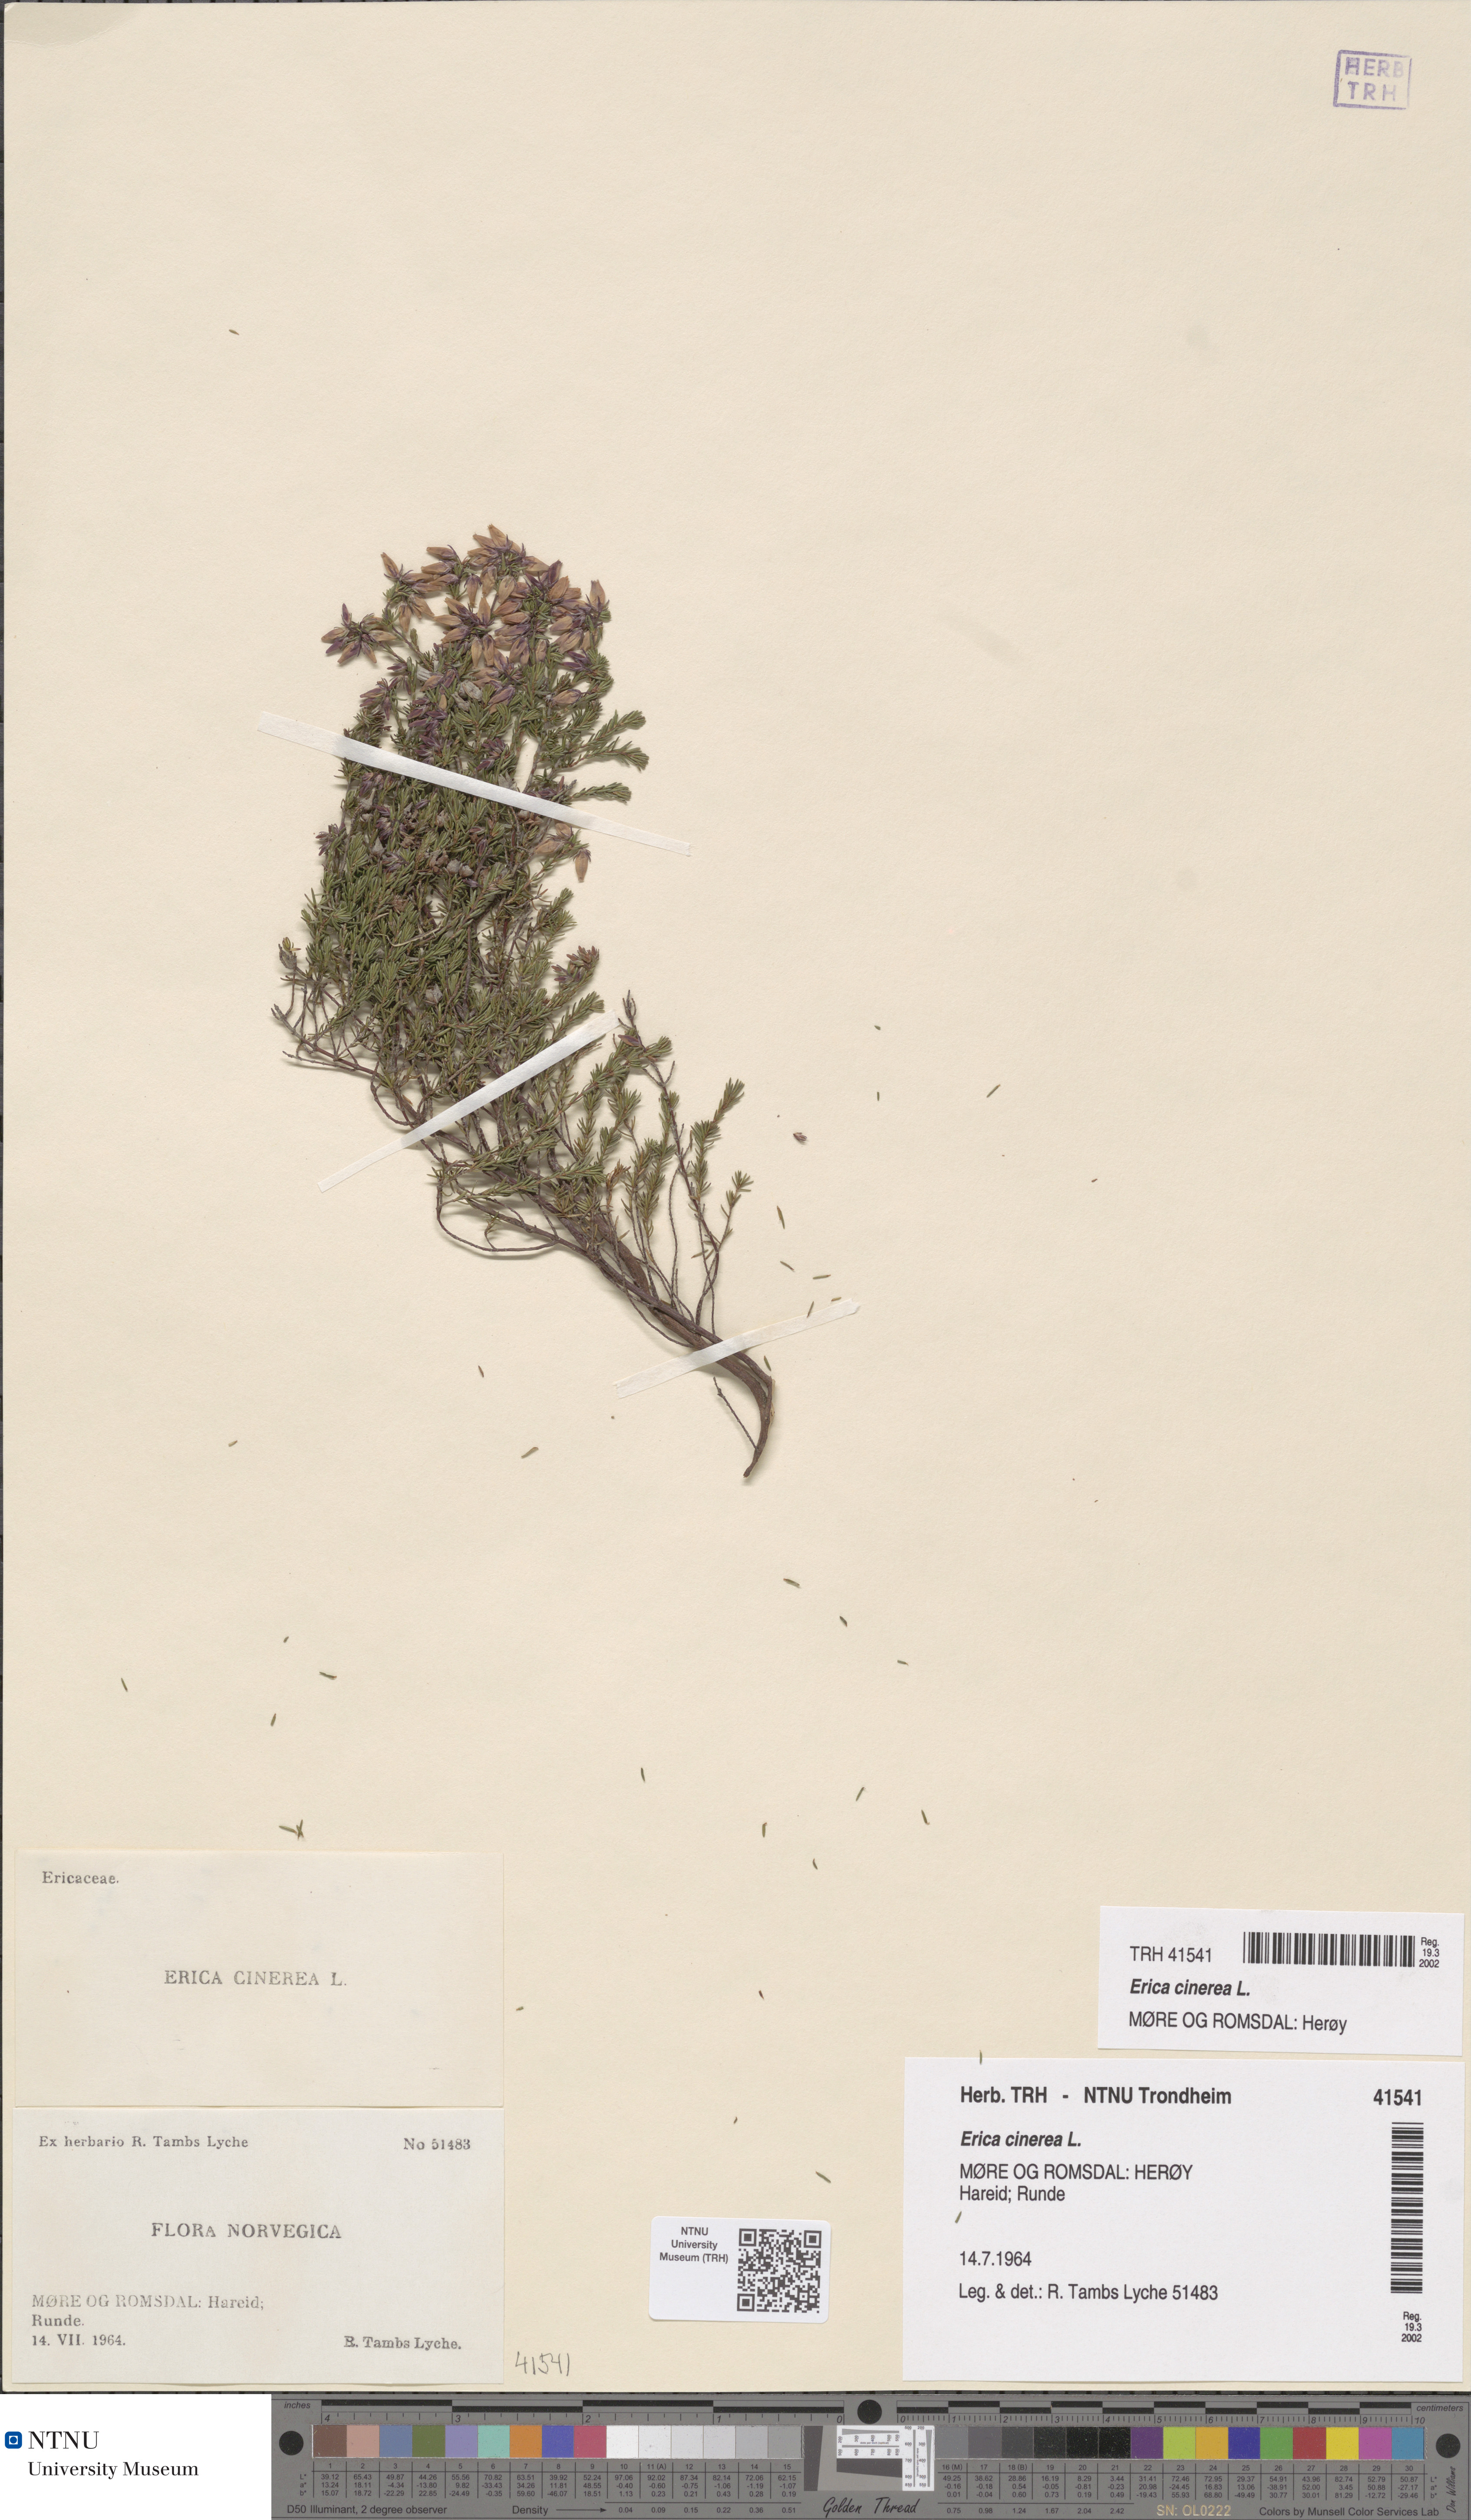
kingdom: Plantae
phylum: Tracheophyta
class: Magnoliopsida
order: Ericales
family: Ericaceae
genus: Erica
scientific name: Erica cinerea
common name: Bell heather
